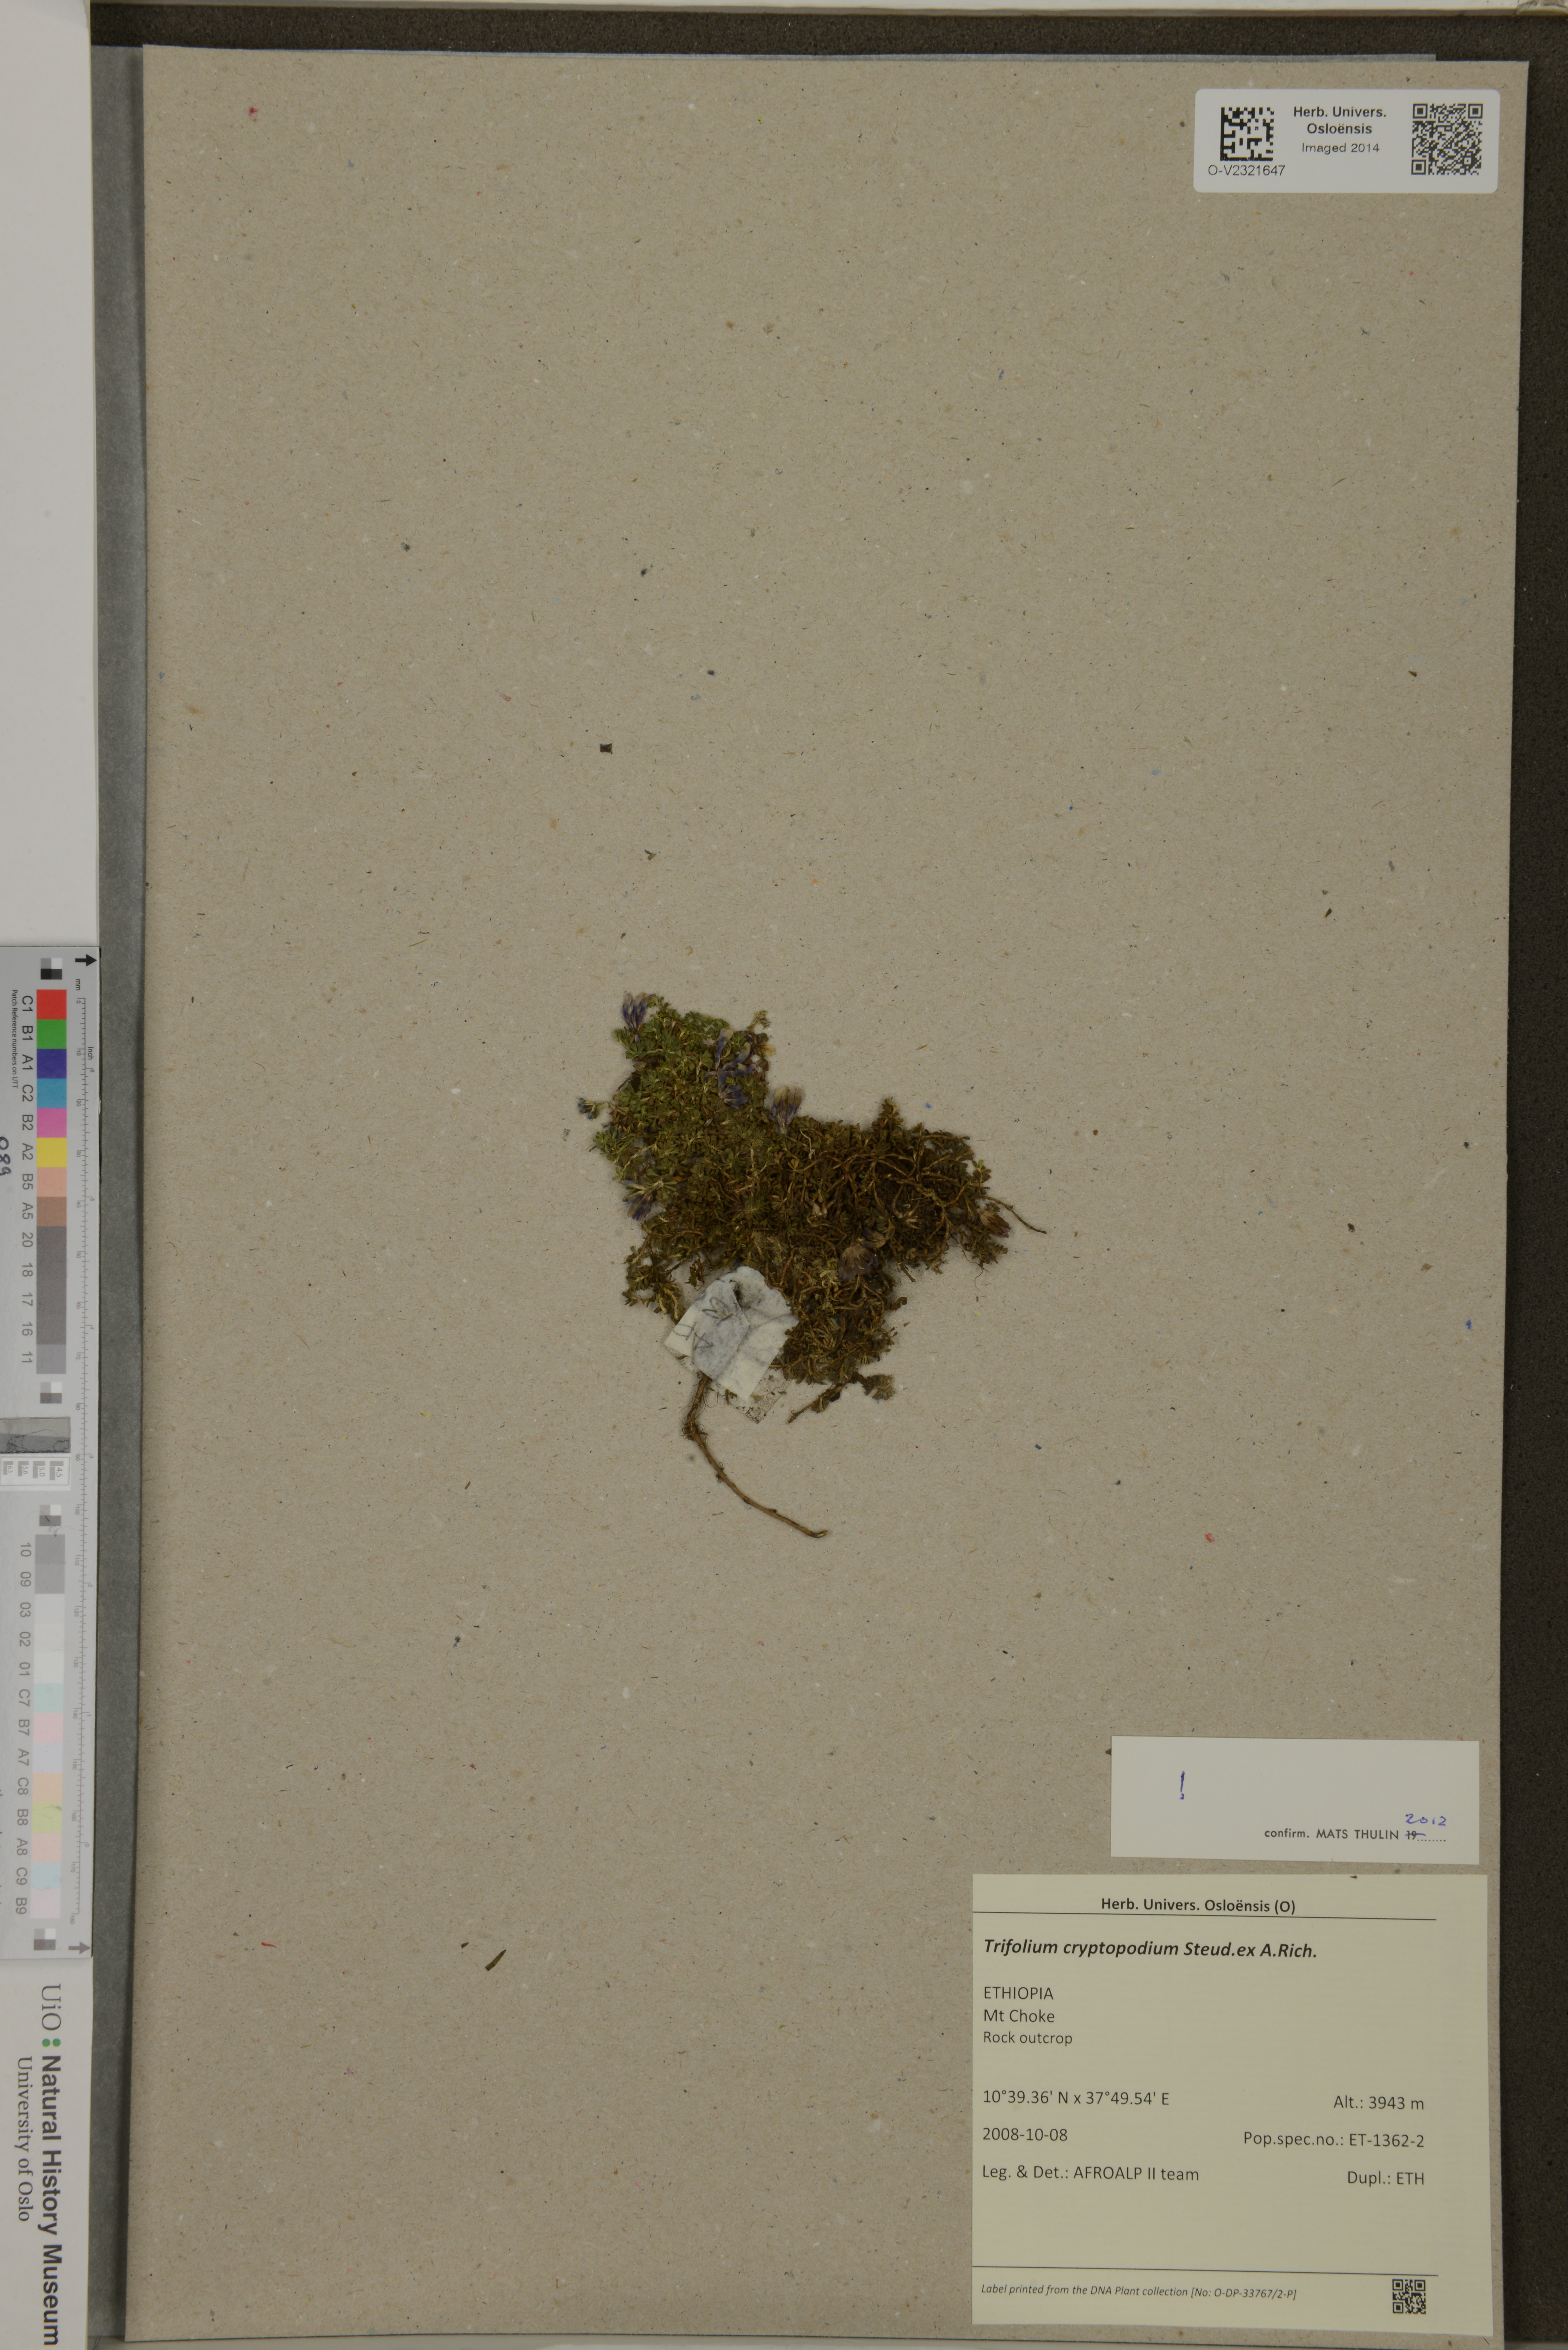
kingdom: Plantae
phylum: Tracheophyta
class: Magnoliopsida
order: Fabales
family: Fabaceae
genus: Trifolium
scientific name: Trifolium cryptopodium
